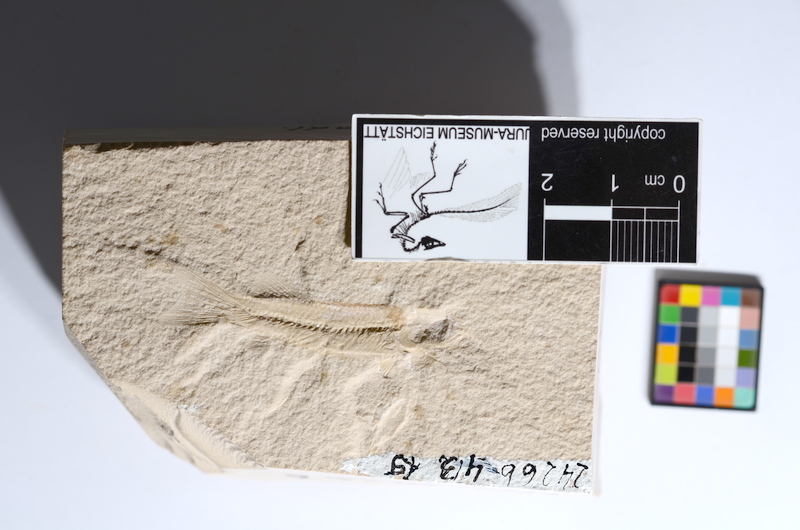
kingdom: Animalia
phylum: Chordata
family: Macrosemiidae
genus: Notagogus
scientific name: Notagogus
